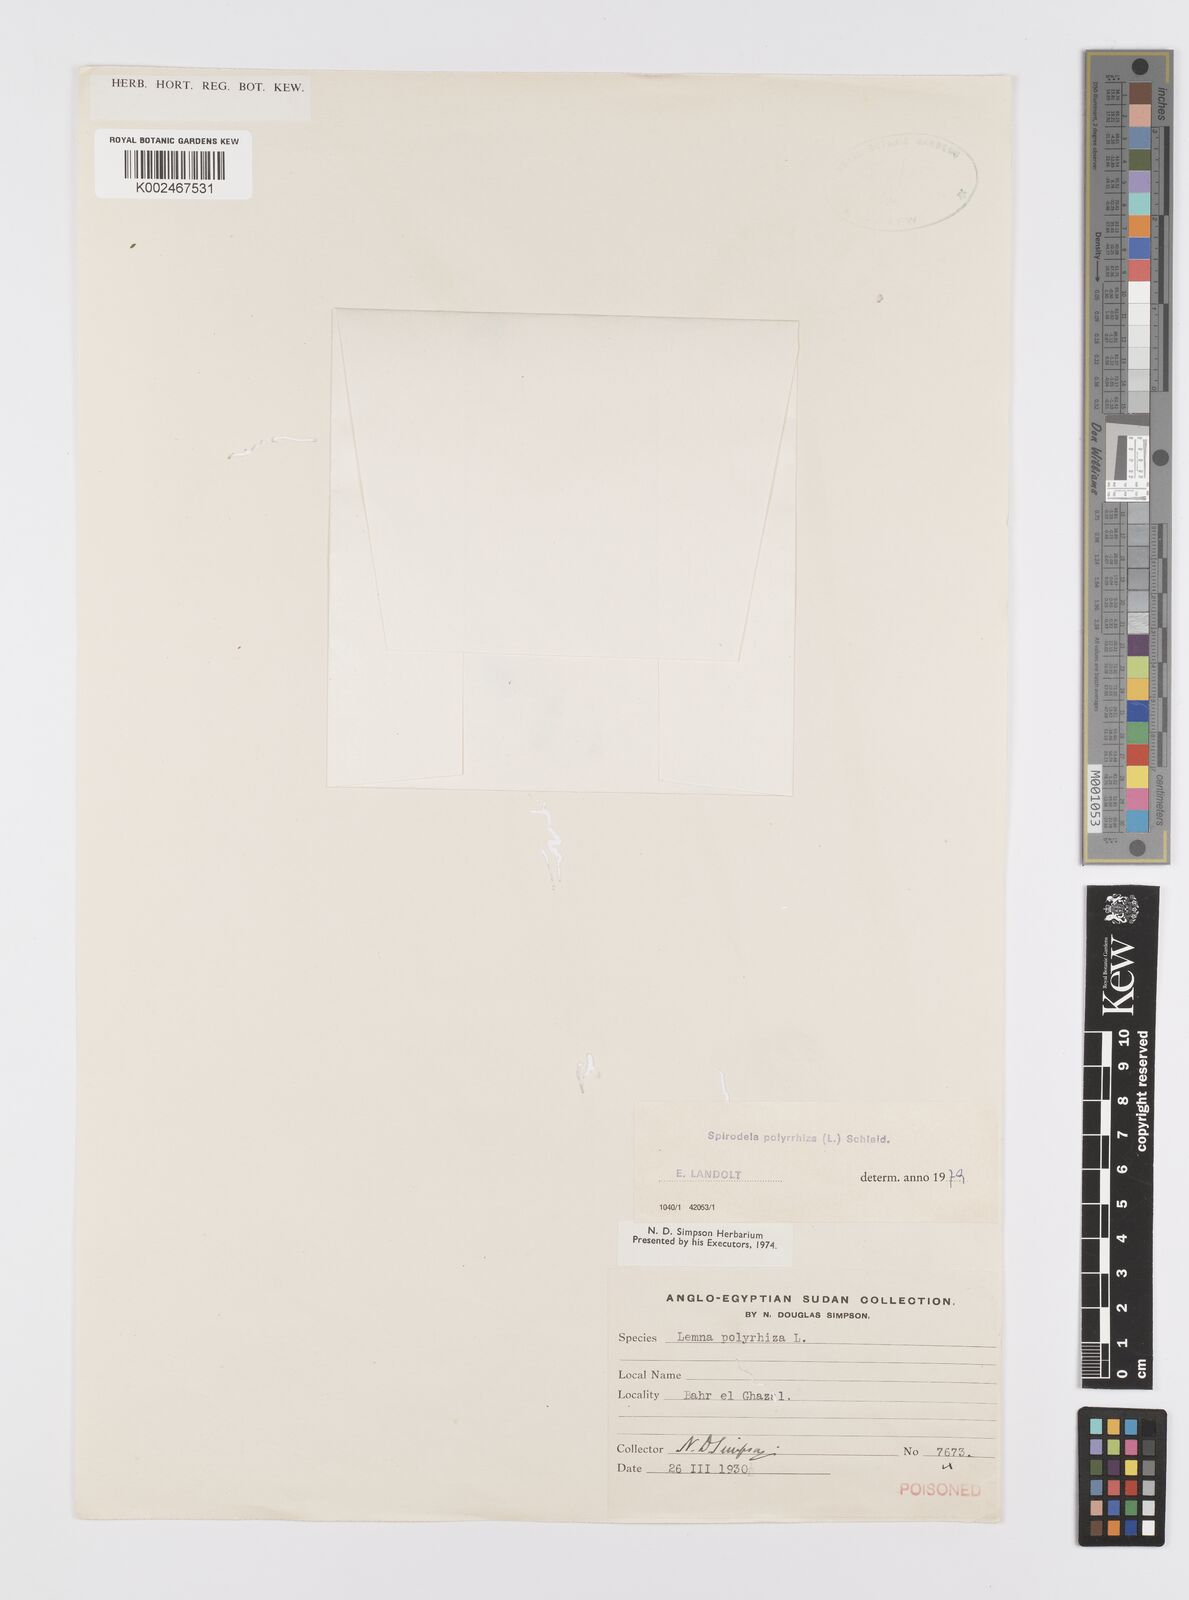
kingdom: Plantae
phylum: Tracheophyta
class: Liliopsida
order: Alismatales
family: Araceae
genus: Spirodela
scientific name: Spirodela polyrhiza
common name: Great duckweed
